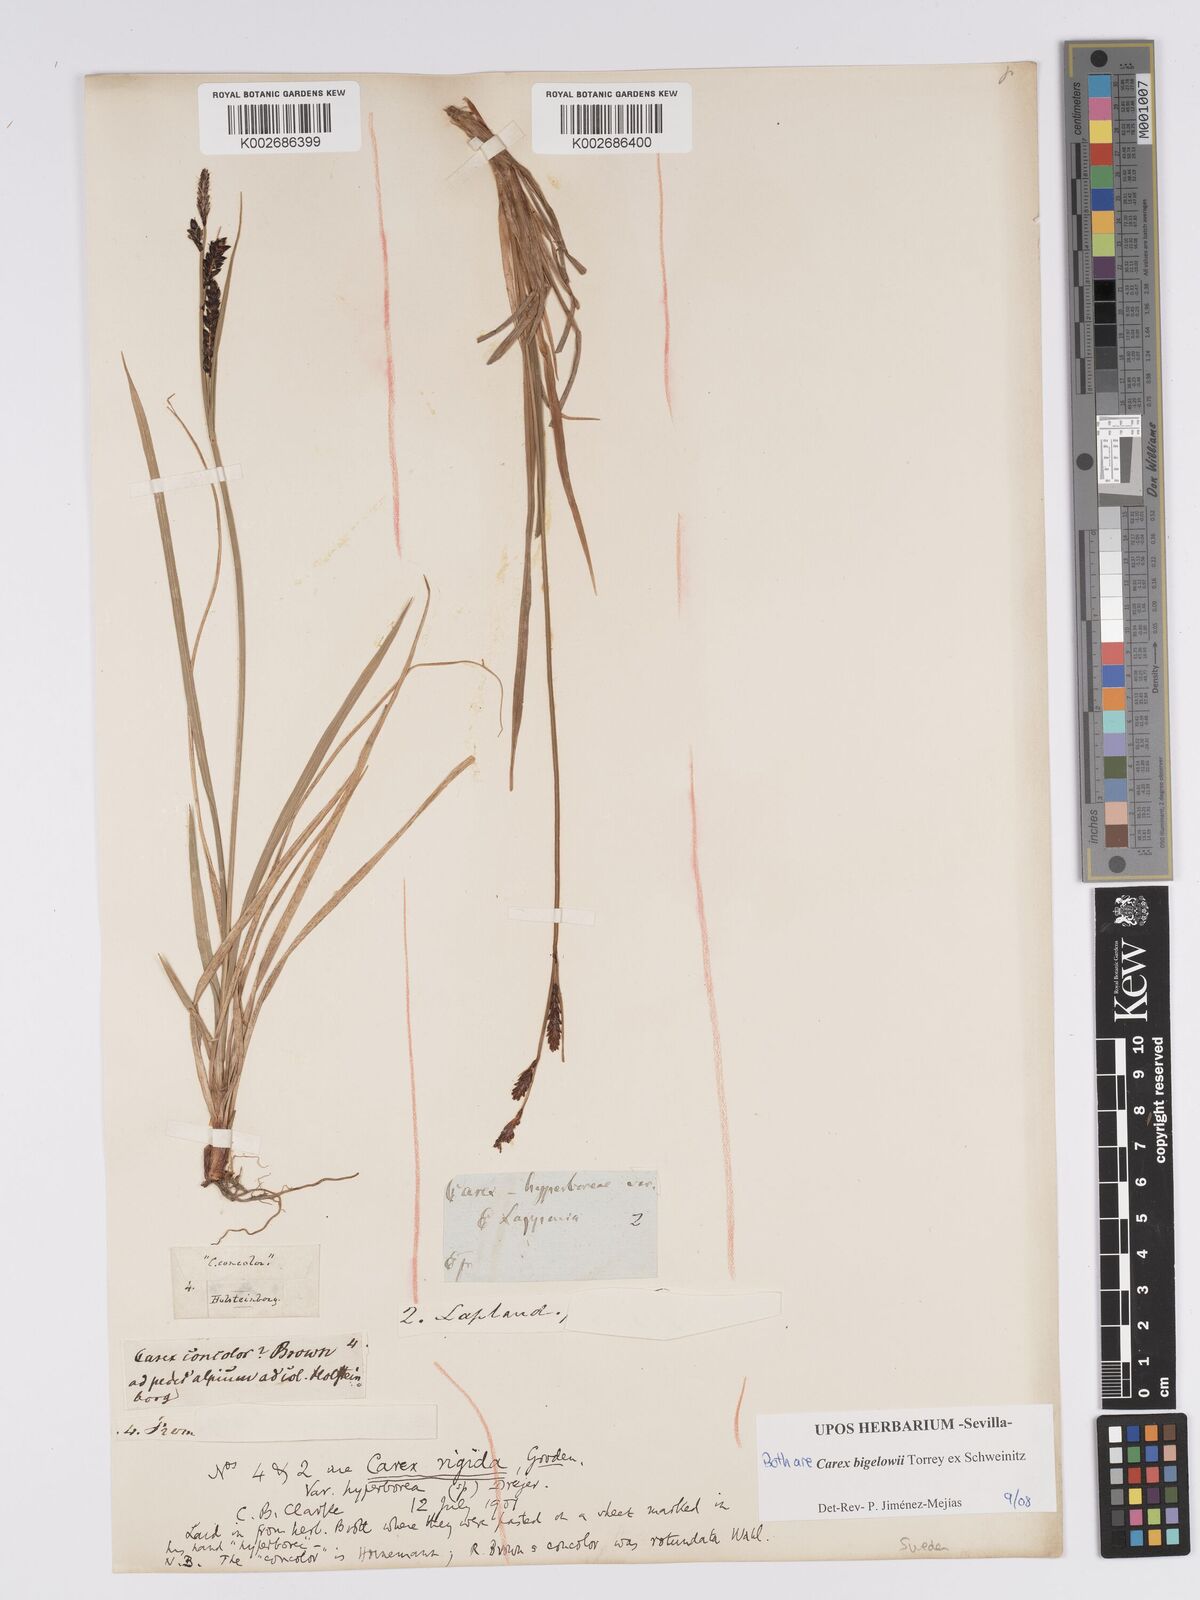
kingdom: Plantae
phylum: Tracheophyta
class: Liliopsida
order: Poales
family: Cyperaceae
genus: Carex
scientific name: Carex bigelowii
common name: Stiff sedge
